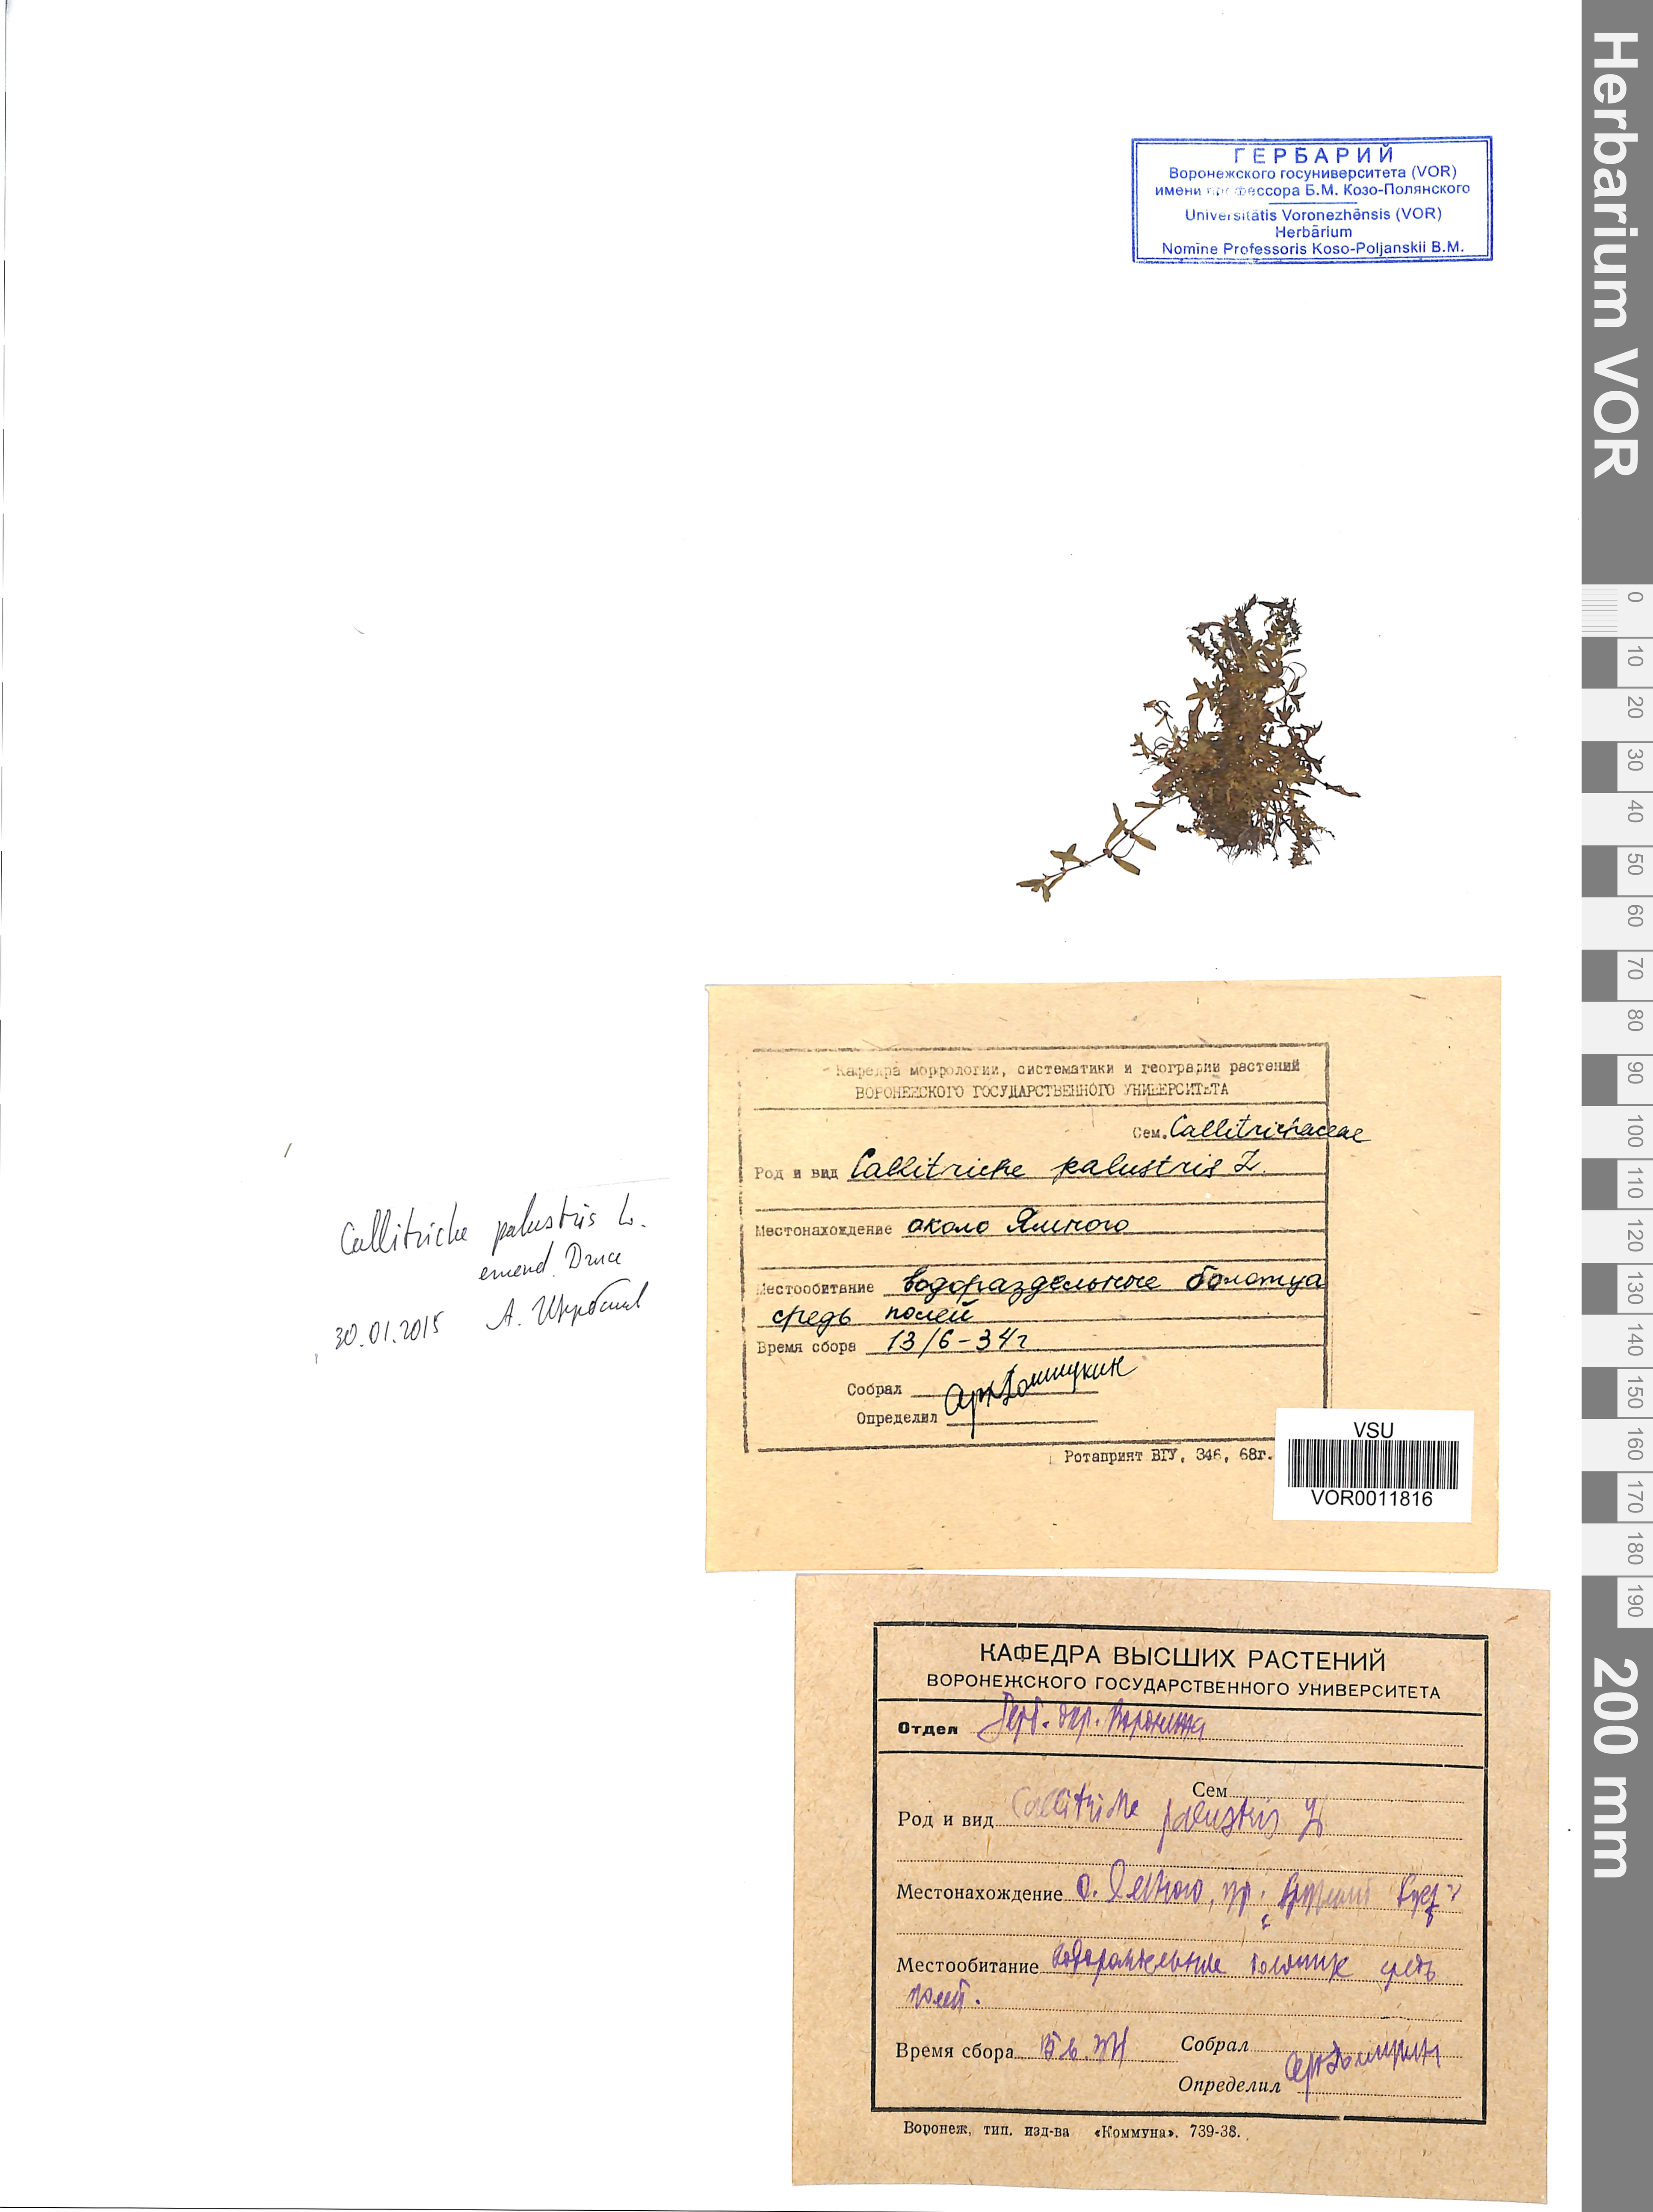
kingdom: Plantae
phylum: Tracheophyta
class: Magnoliopsida
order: Lamiales
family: Plantaginaceae
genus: Callitriche
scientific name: Callitriche palustris
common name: Spring water-starwort
